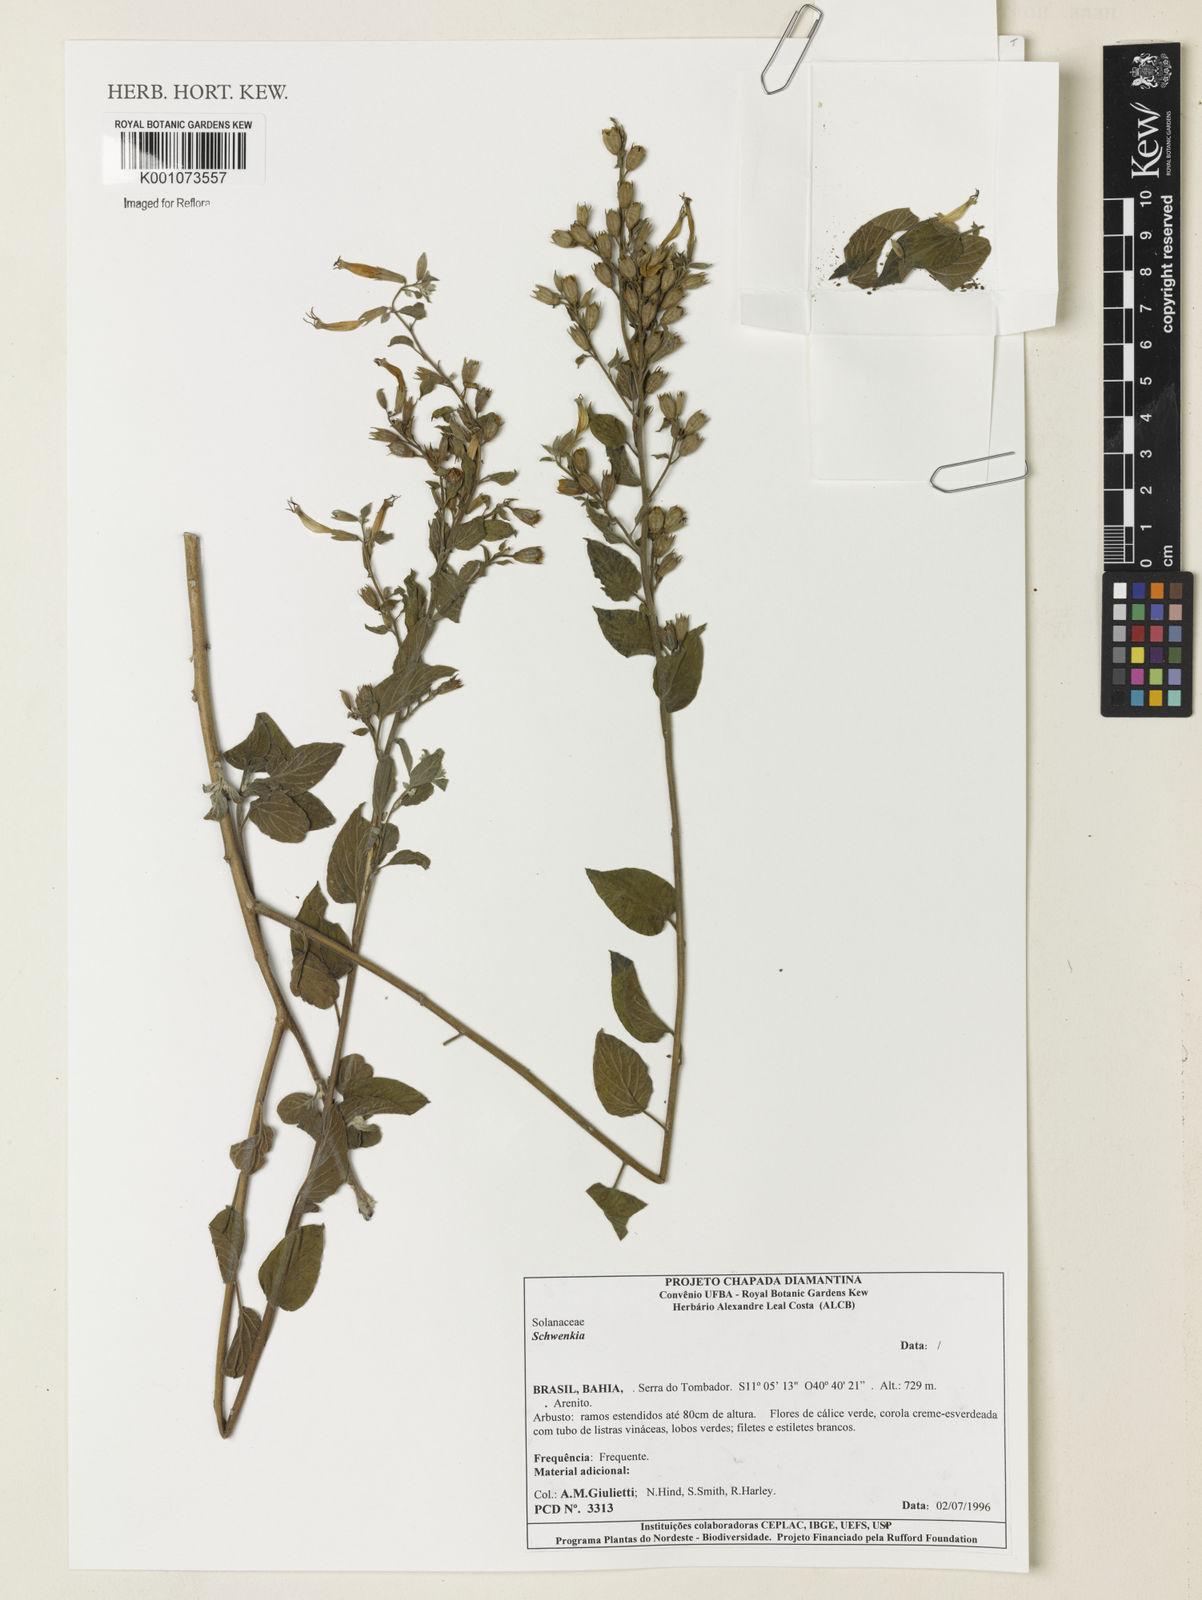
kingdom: Plantae
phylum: Tracheophyta
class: Magnoliopsida
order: Solanales
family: Solanaceae
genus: Schwenckia
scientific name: Schwenckia mollissima
